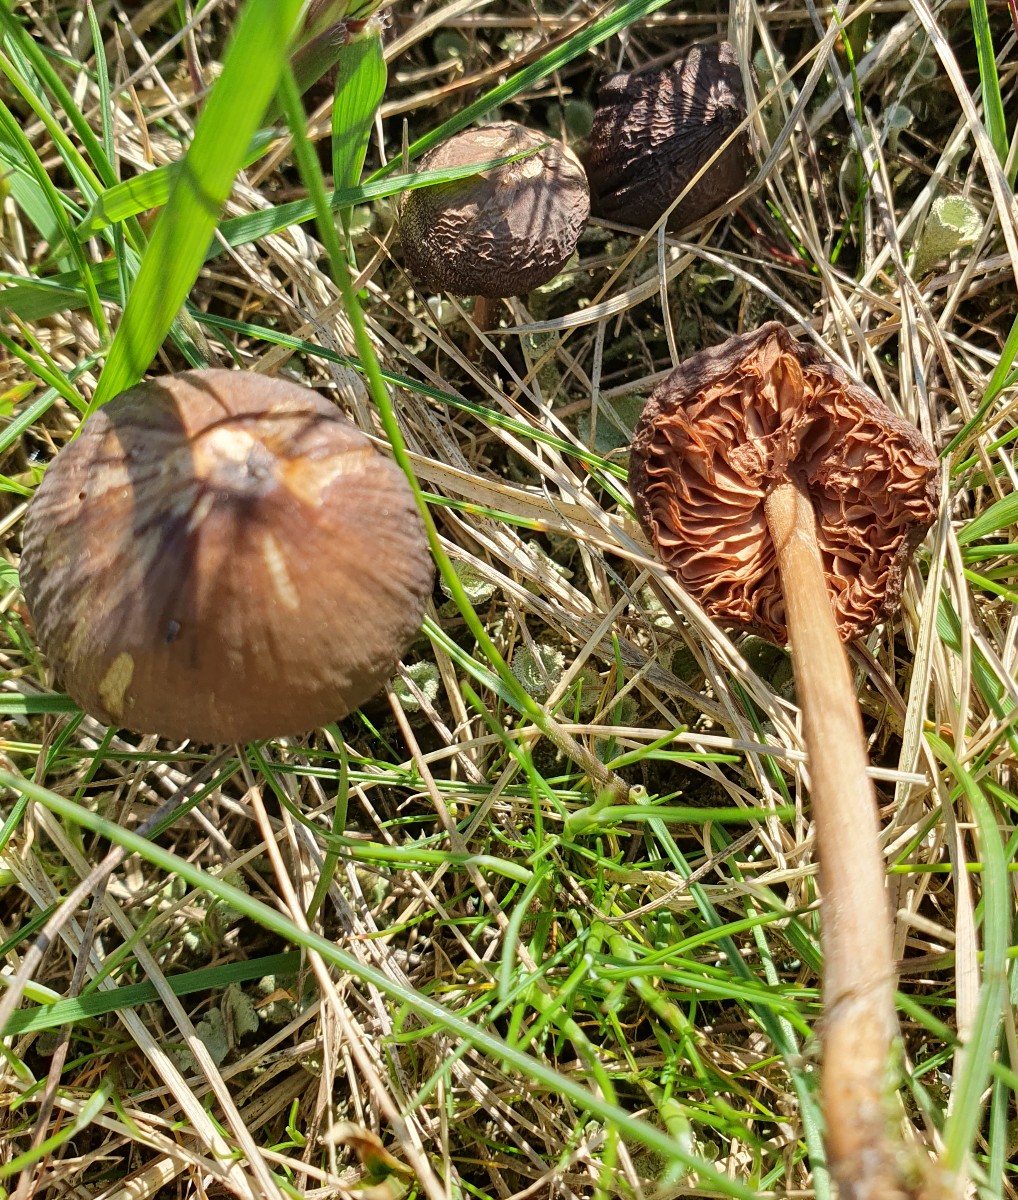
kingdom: Fungi
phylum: Basidiomycota
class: Agaricomycetes
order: Agaricales
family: Entolomataceae
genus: Entoloma
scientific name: Entoloma
